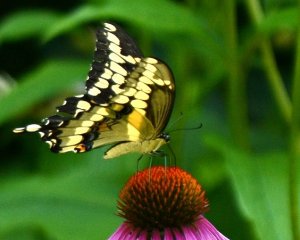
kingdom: Animalia
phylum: Arthropoda
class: Insecta
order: Lepidoptera
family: Papilionidae
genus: Papilio
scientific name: Papilio cresphontes
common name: Eastern Giant Swallowtail
